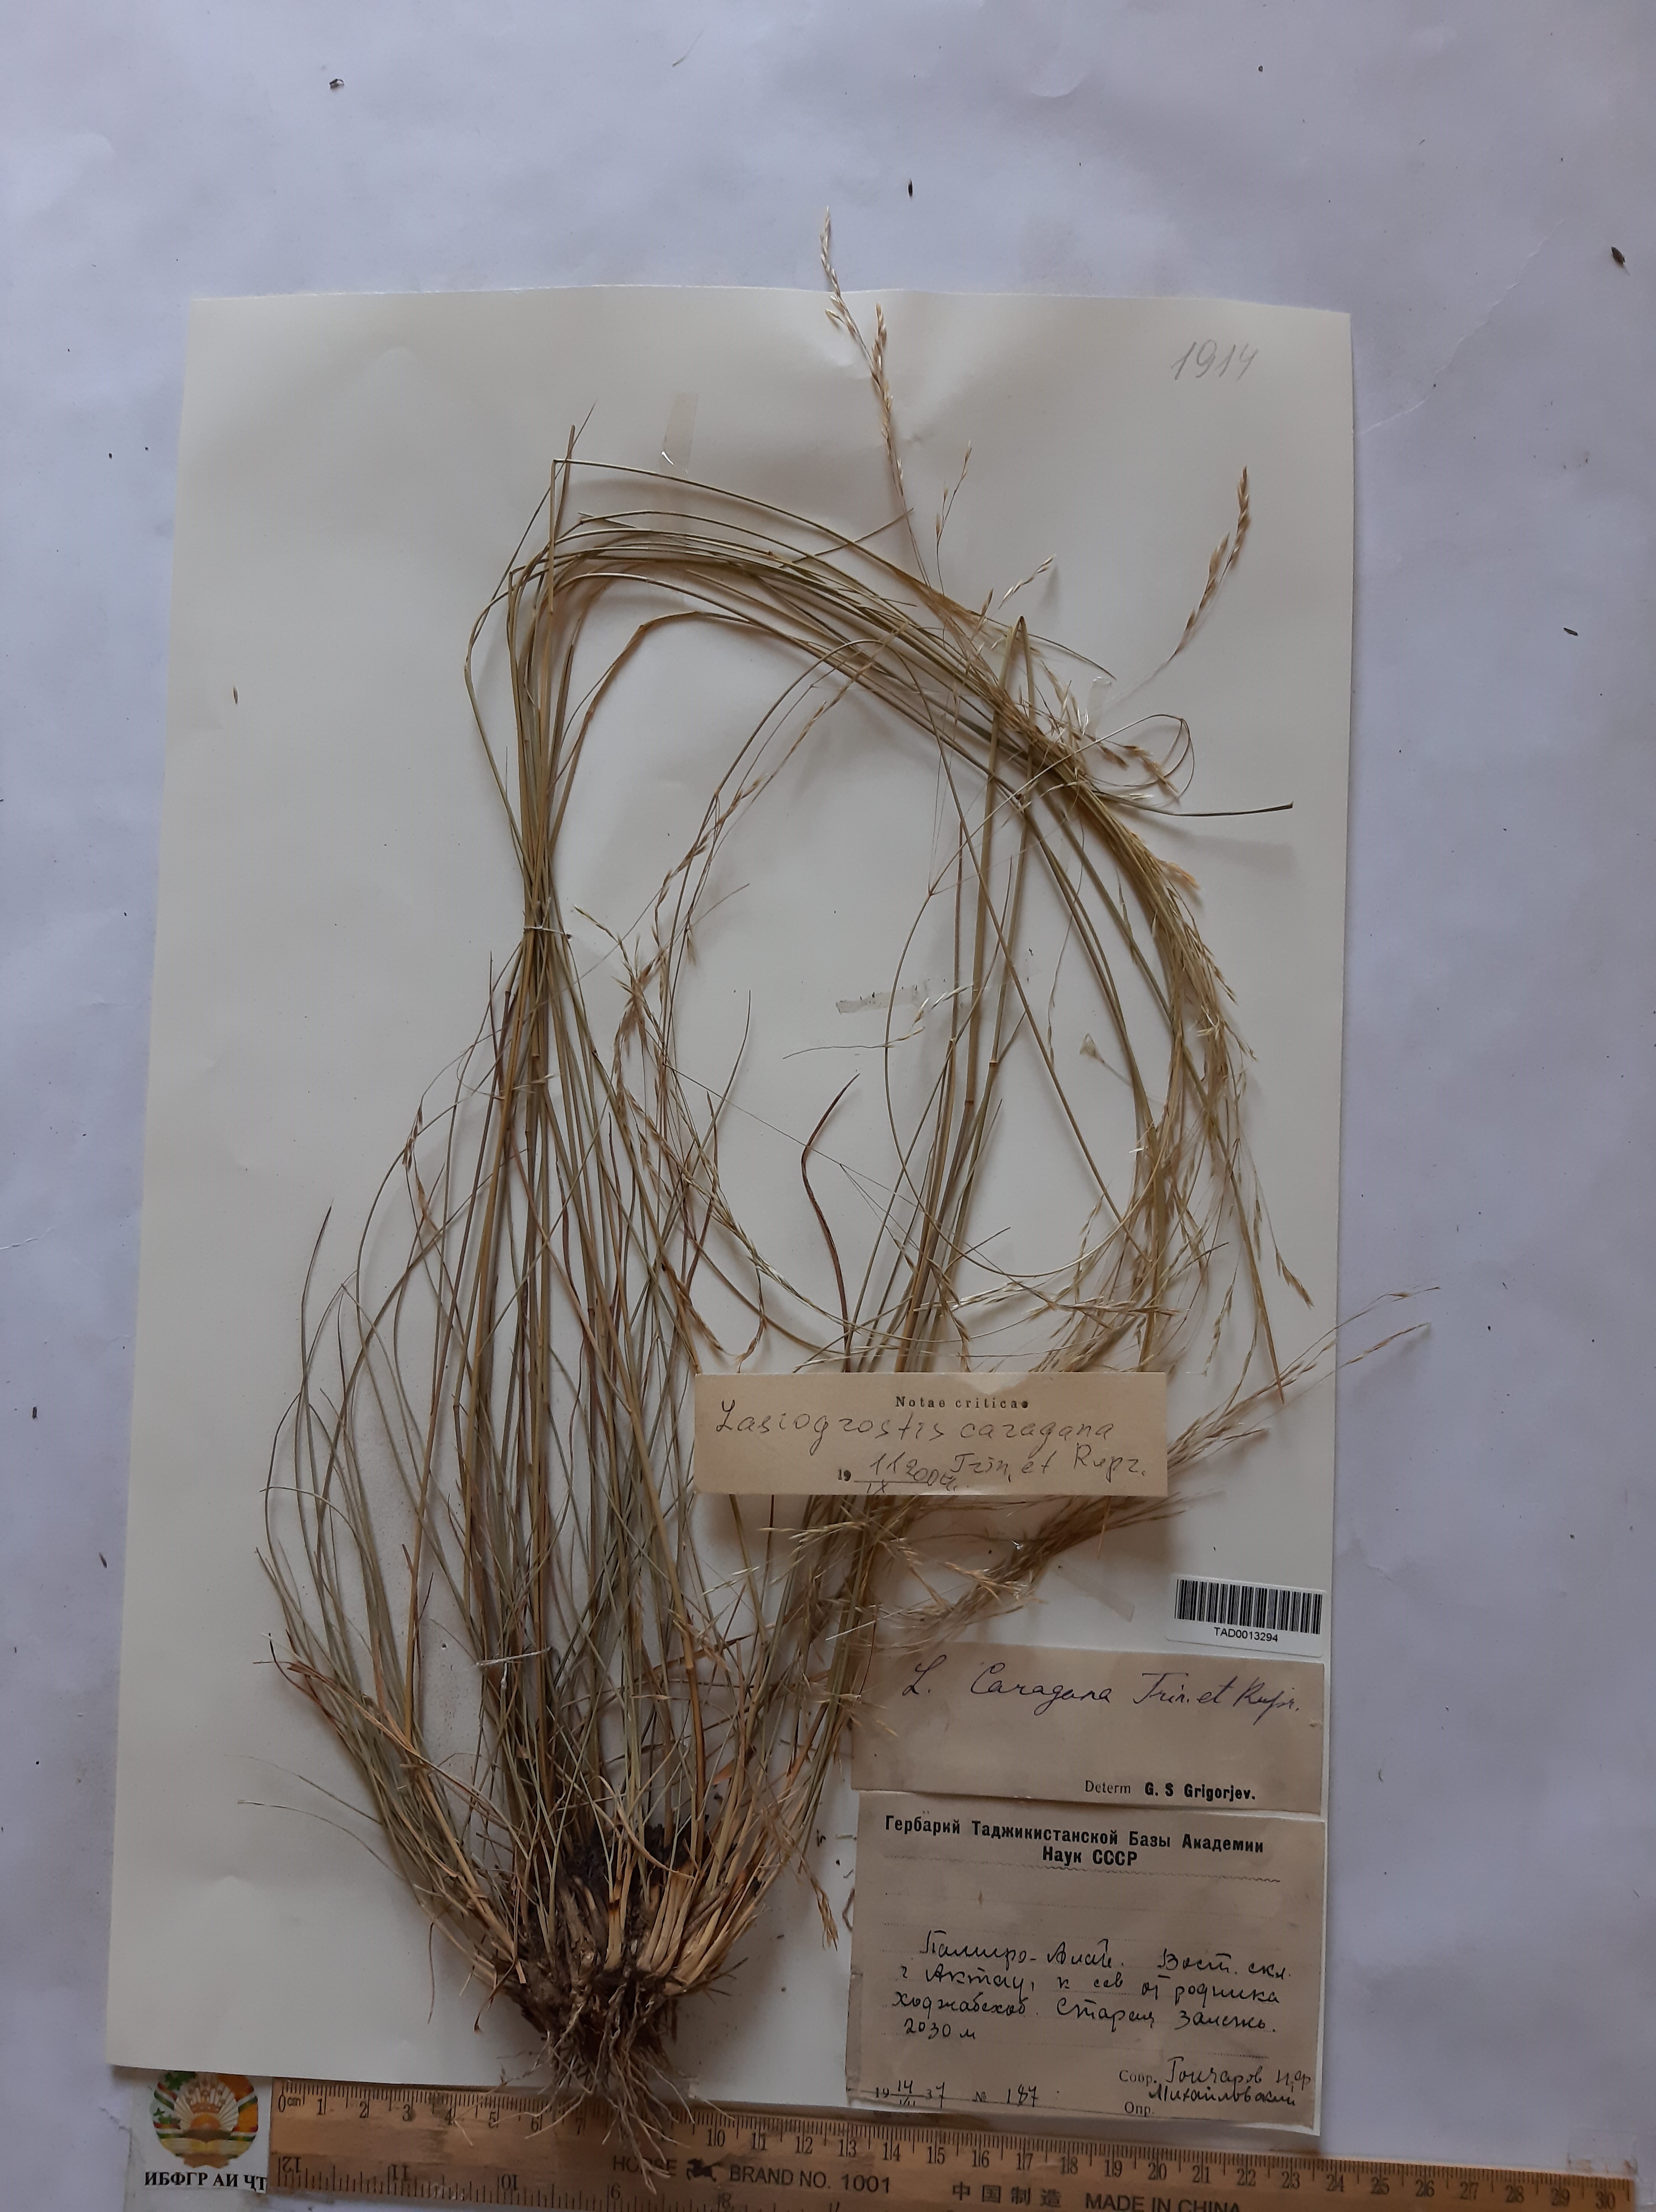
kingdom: Plantae
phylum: Tracheophyta
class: Liliopsida
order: Poales
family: Poaceae
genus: Stipa
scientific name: Stipa conferta
